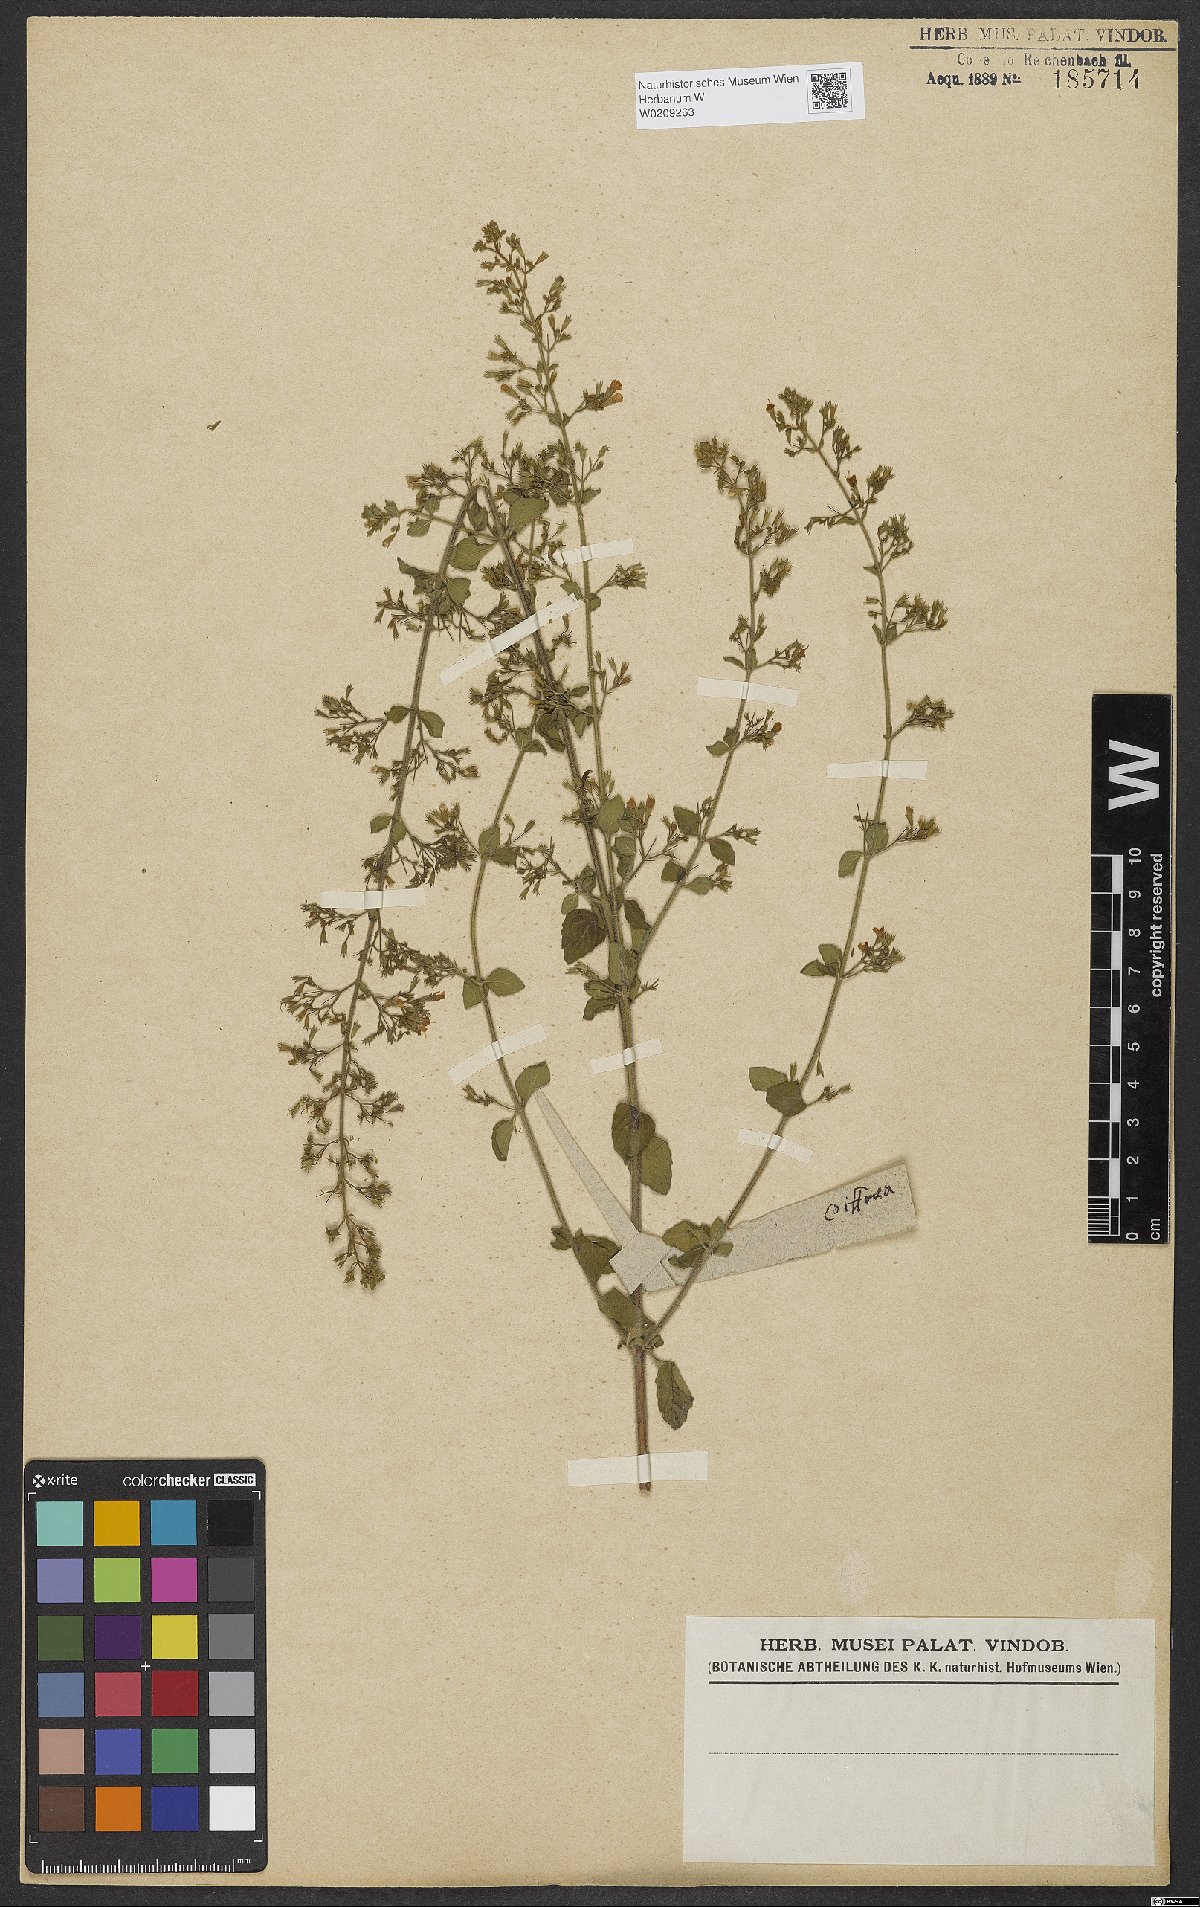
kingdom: Plantae
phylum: Tracheophyta
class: Magnoliopsida
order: Lamiales
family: Lamiaceae
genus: Calamintha
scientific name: Calamintha
